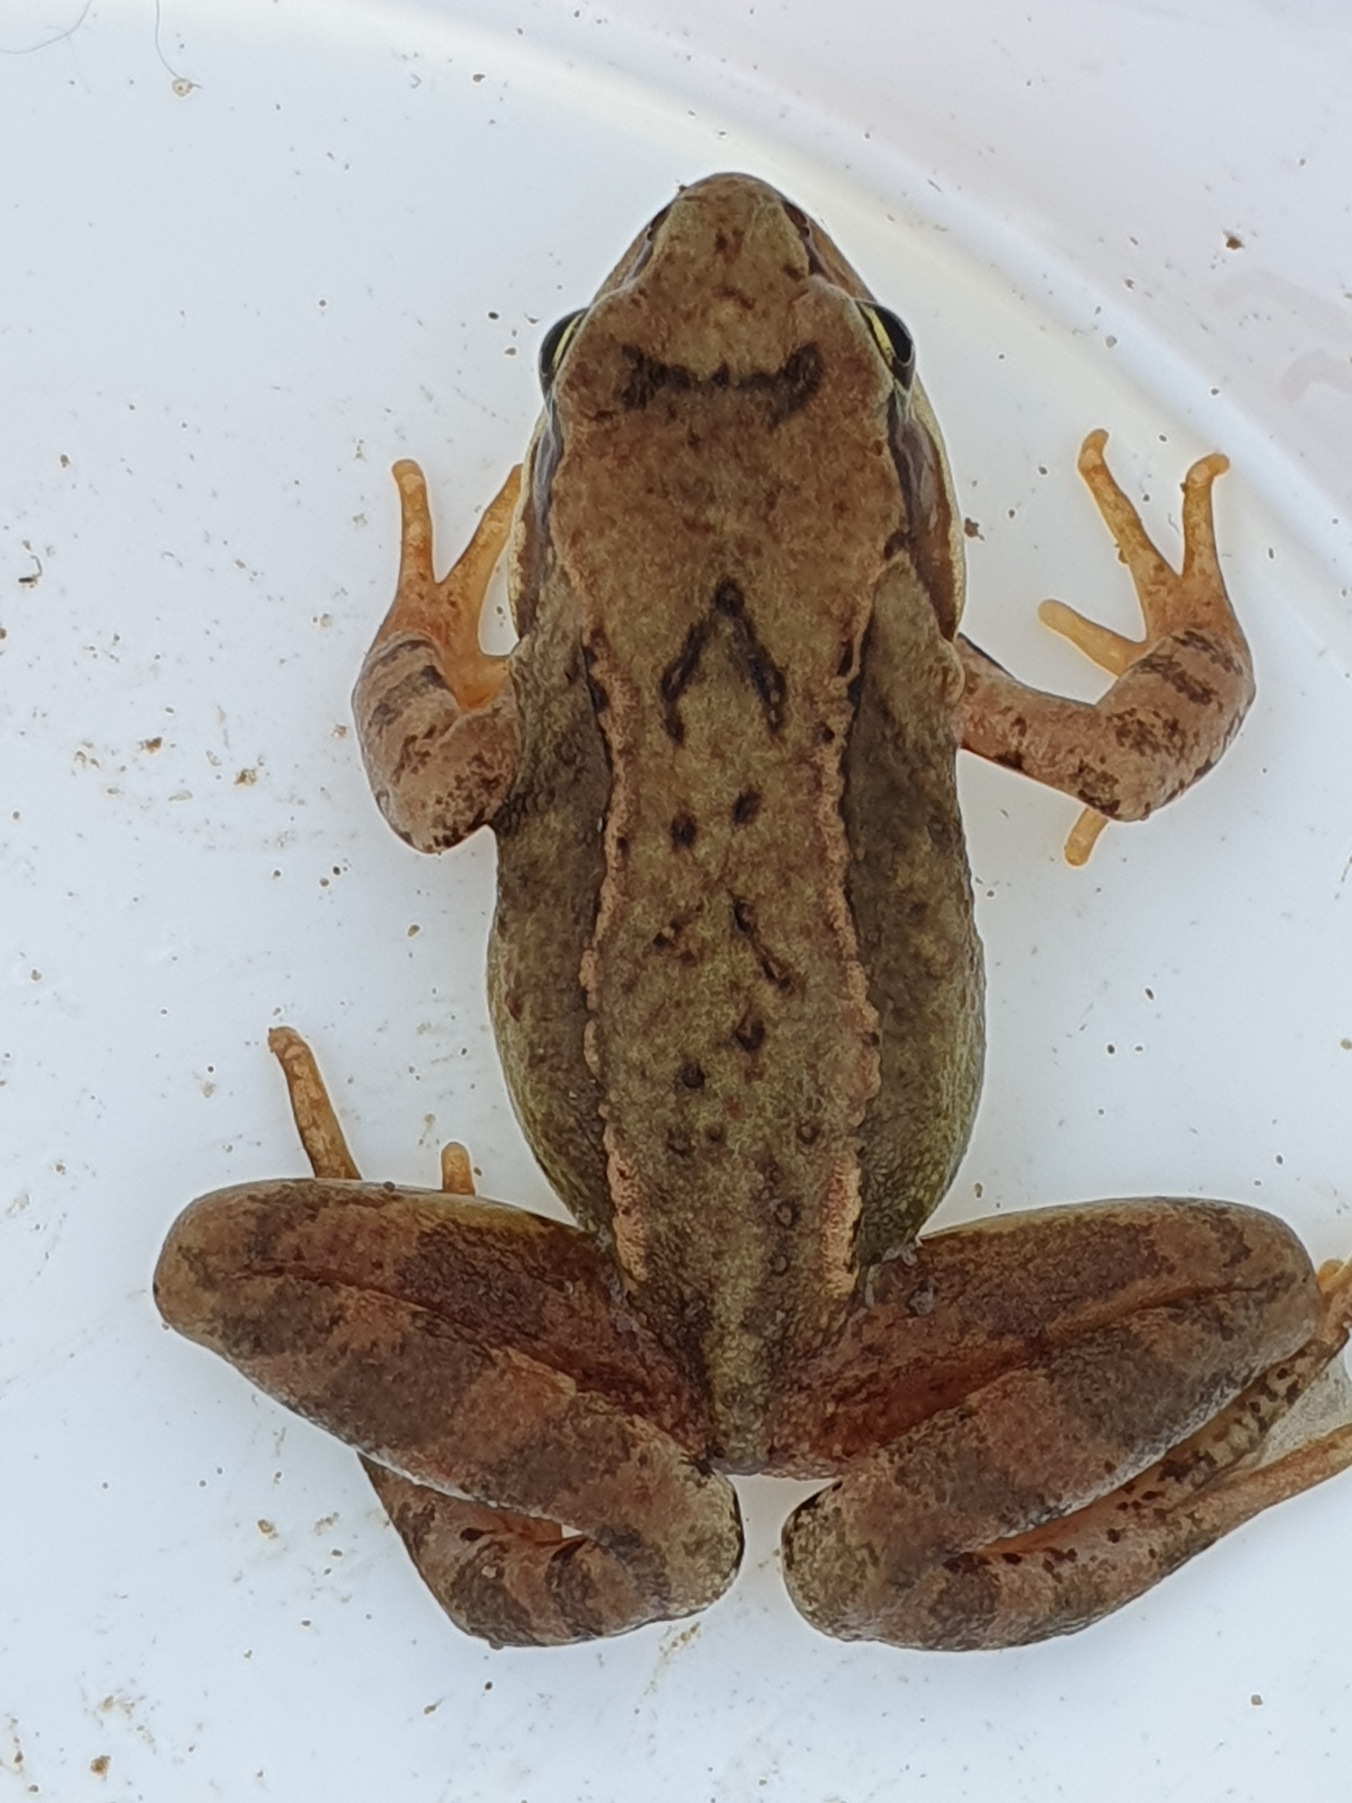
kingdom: Animalia
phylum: Chordata
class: Amphibia
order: Anura
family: Ranidae
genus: Rana
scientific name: Rana temporaria
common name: Butsnudet frø
